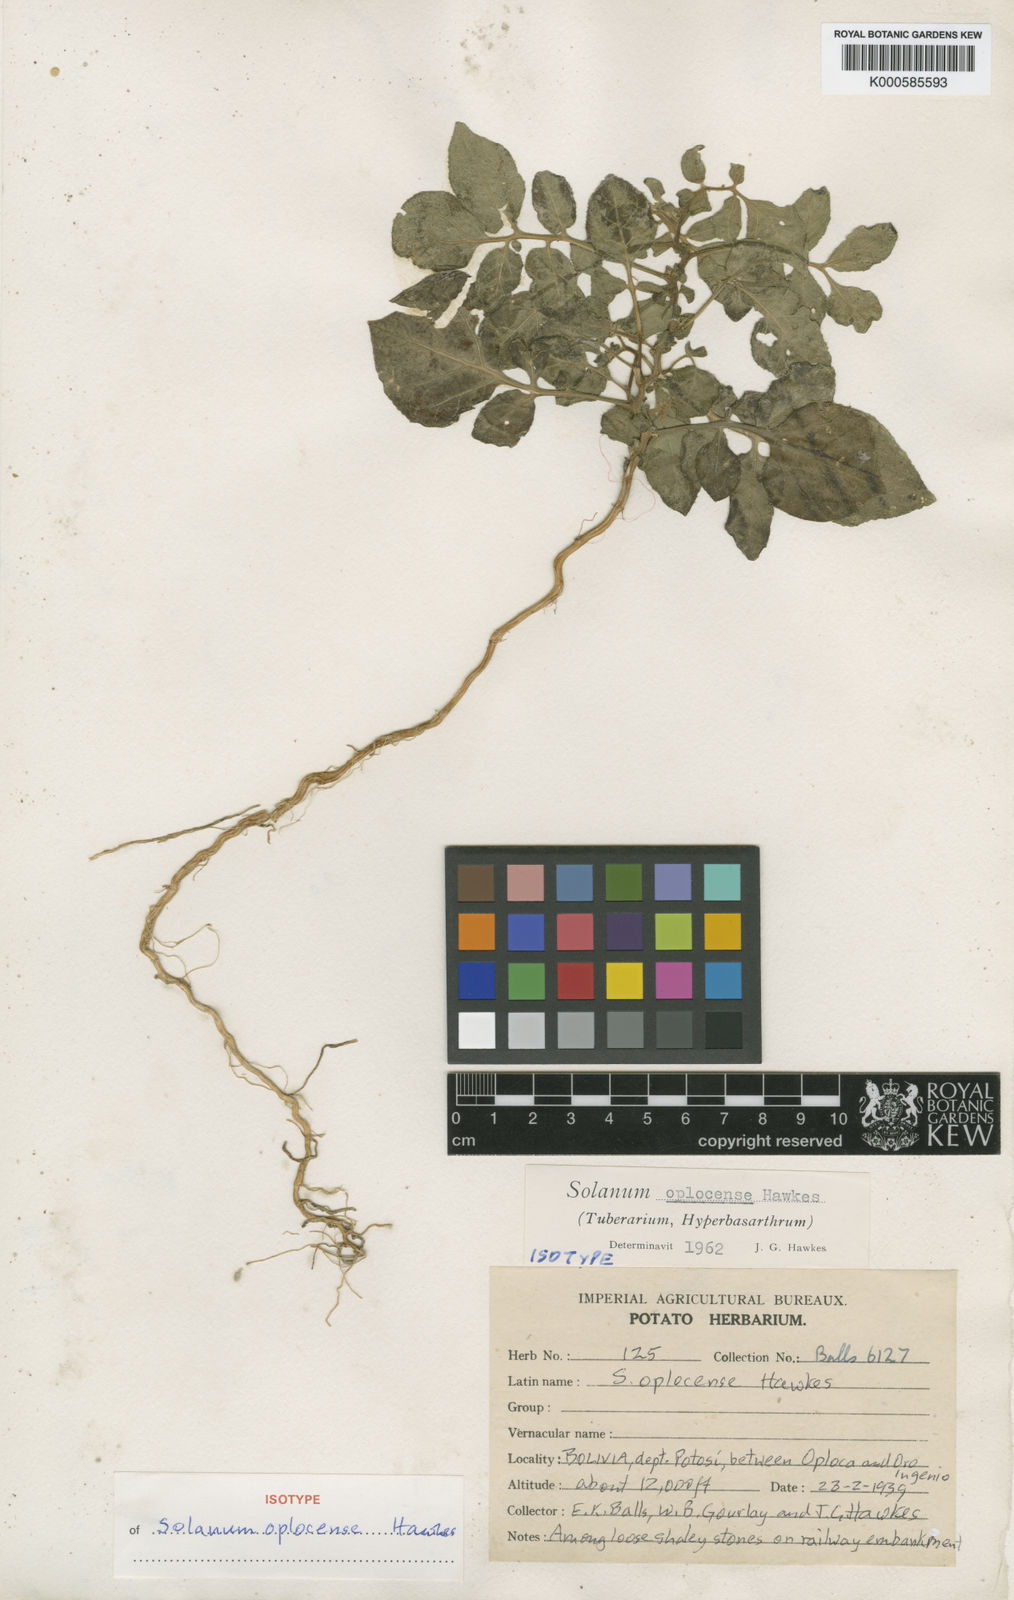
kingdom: Plantae
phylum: Tracheophyta
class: Magnoliopsida
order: Solanales
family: Solanaceae
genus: Solanum
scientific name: Solanum brevicaule
